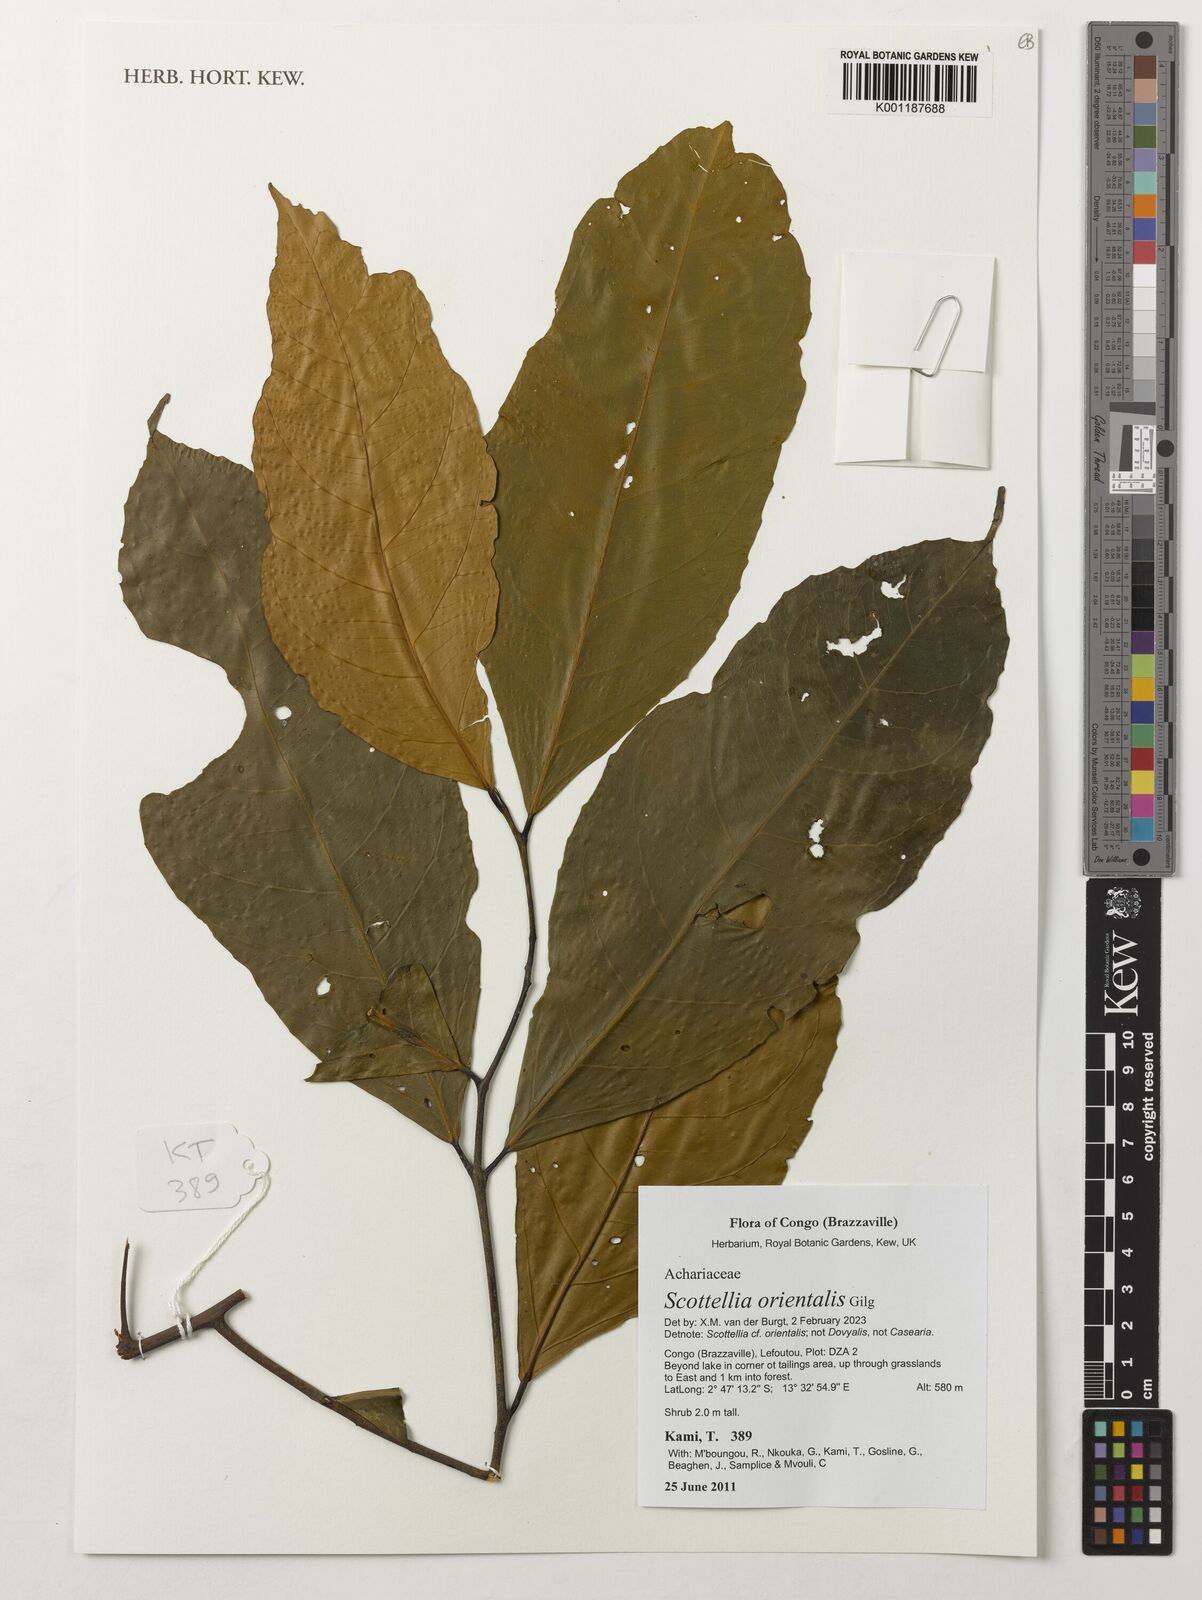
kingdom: Plantae
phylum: Tracheophyta
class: Magnoliopsida
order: Malpighiales
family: Achariaceae
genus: Scottellia
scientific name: Scottellia orientalis
